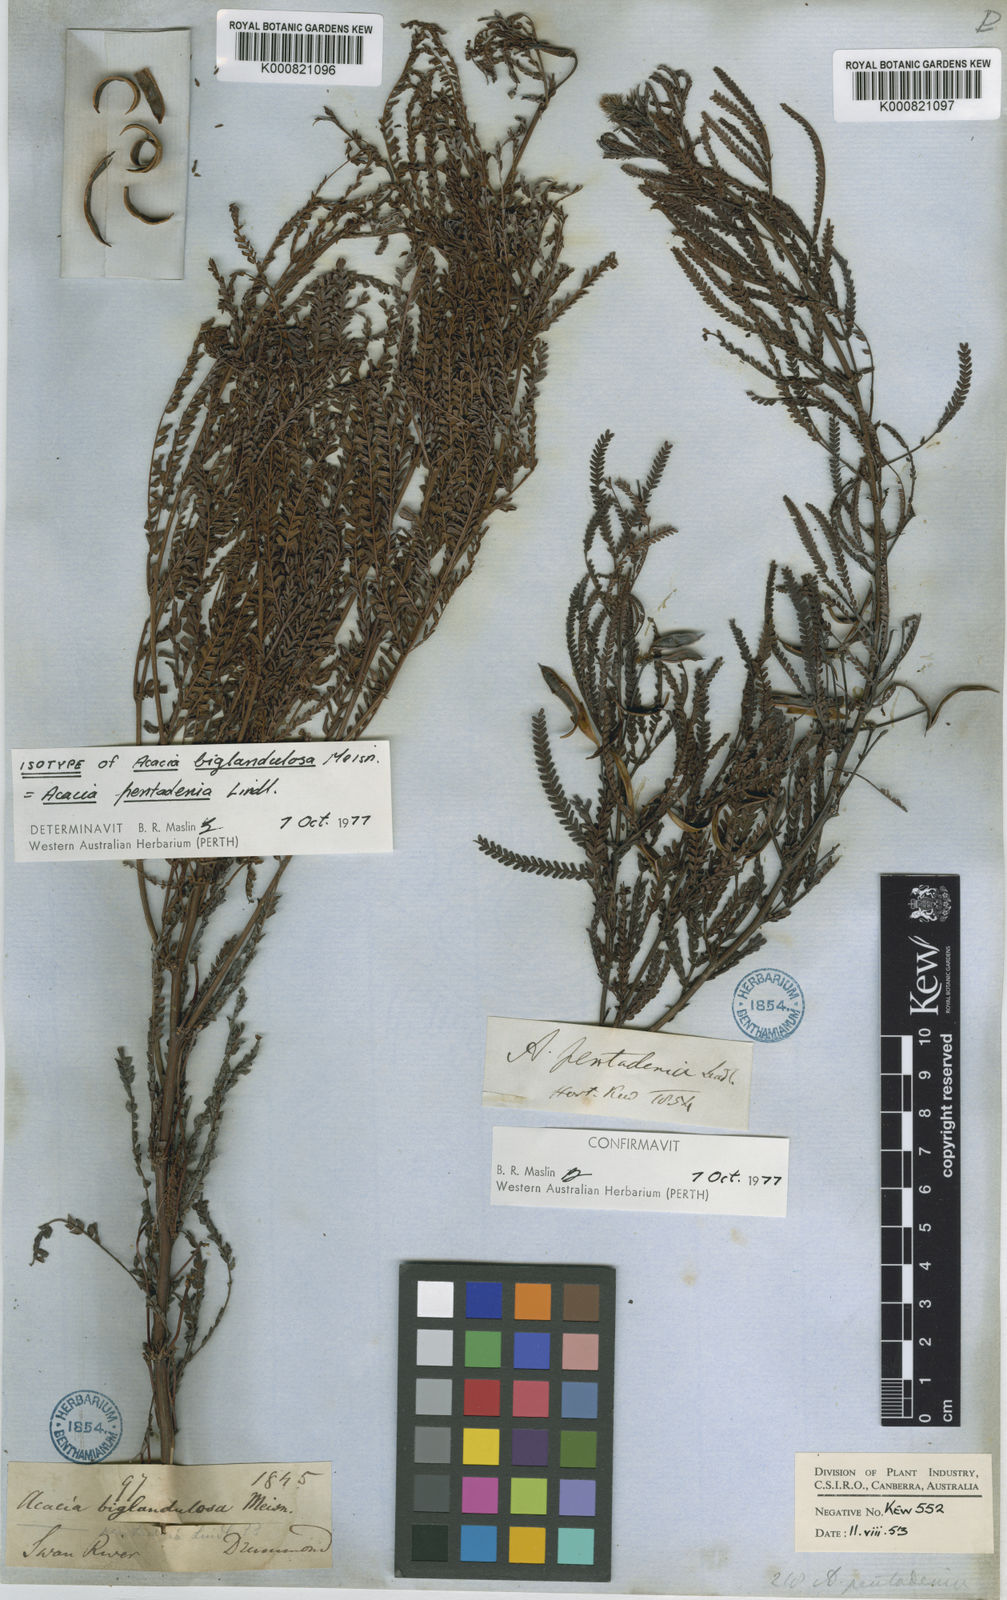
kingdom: Plantae
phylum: Tracheophyta
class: Magnoliopsida
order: Fabales
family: Fabaceae
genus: Acacia
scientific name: Acacia pentadenia
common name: Karri wattle
